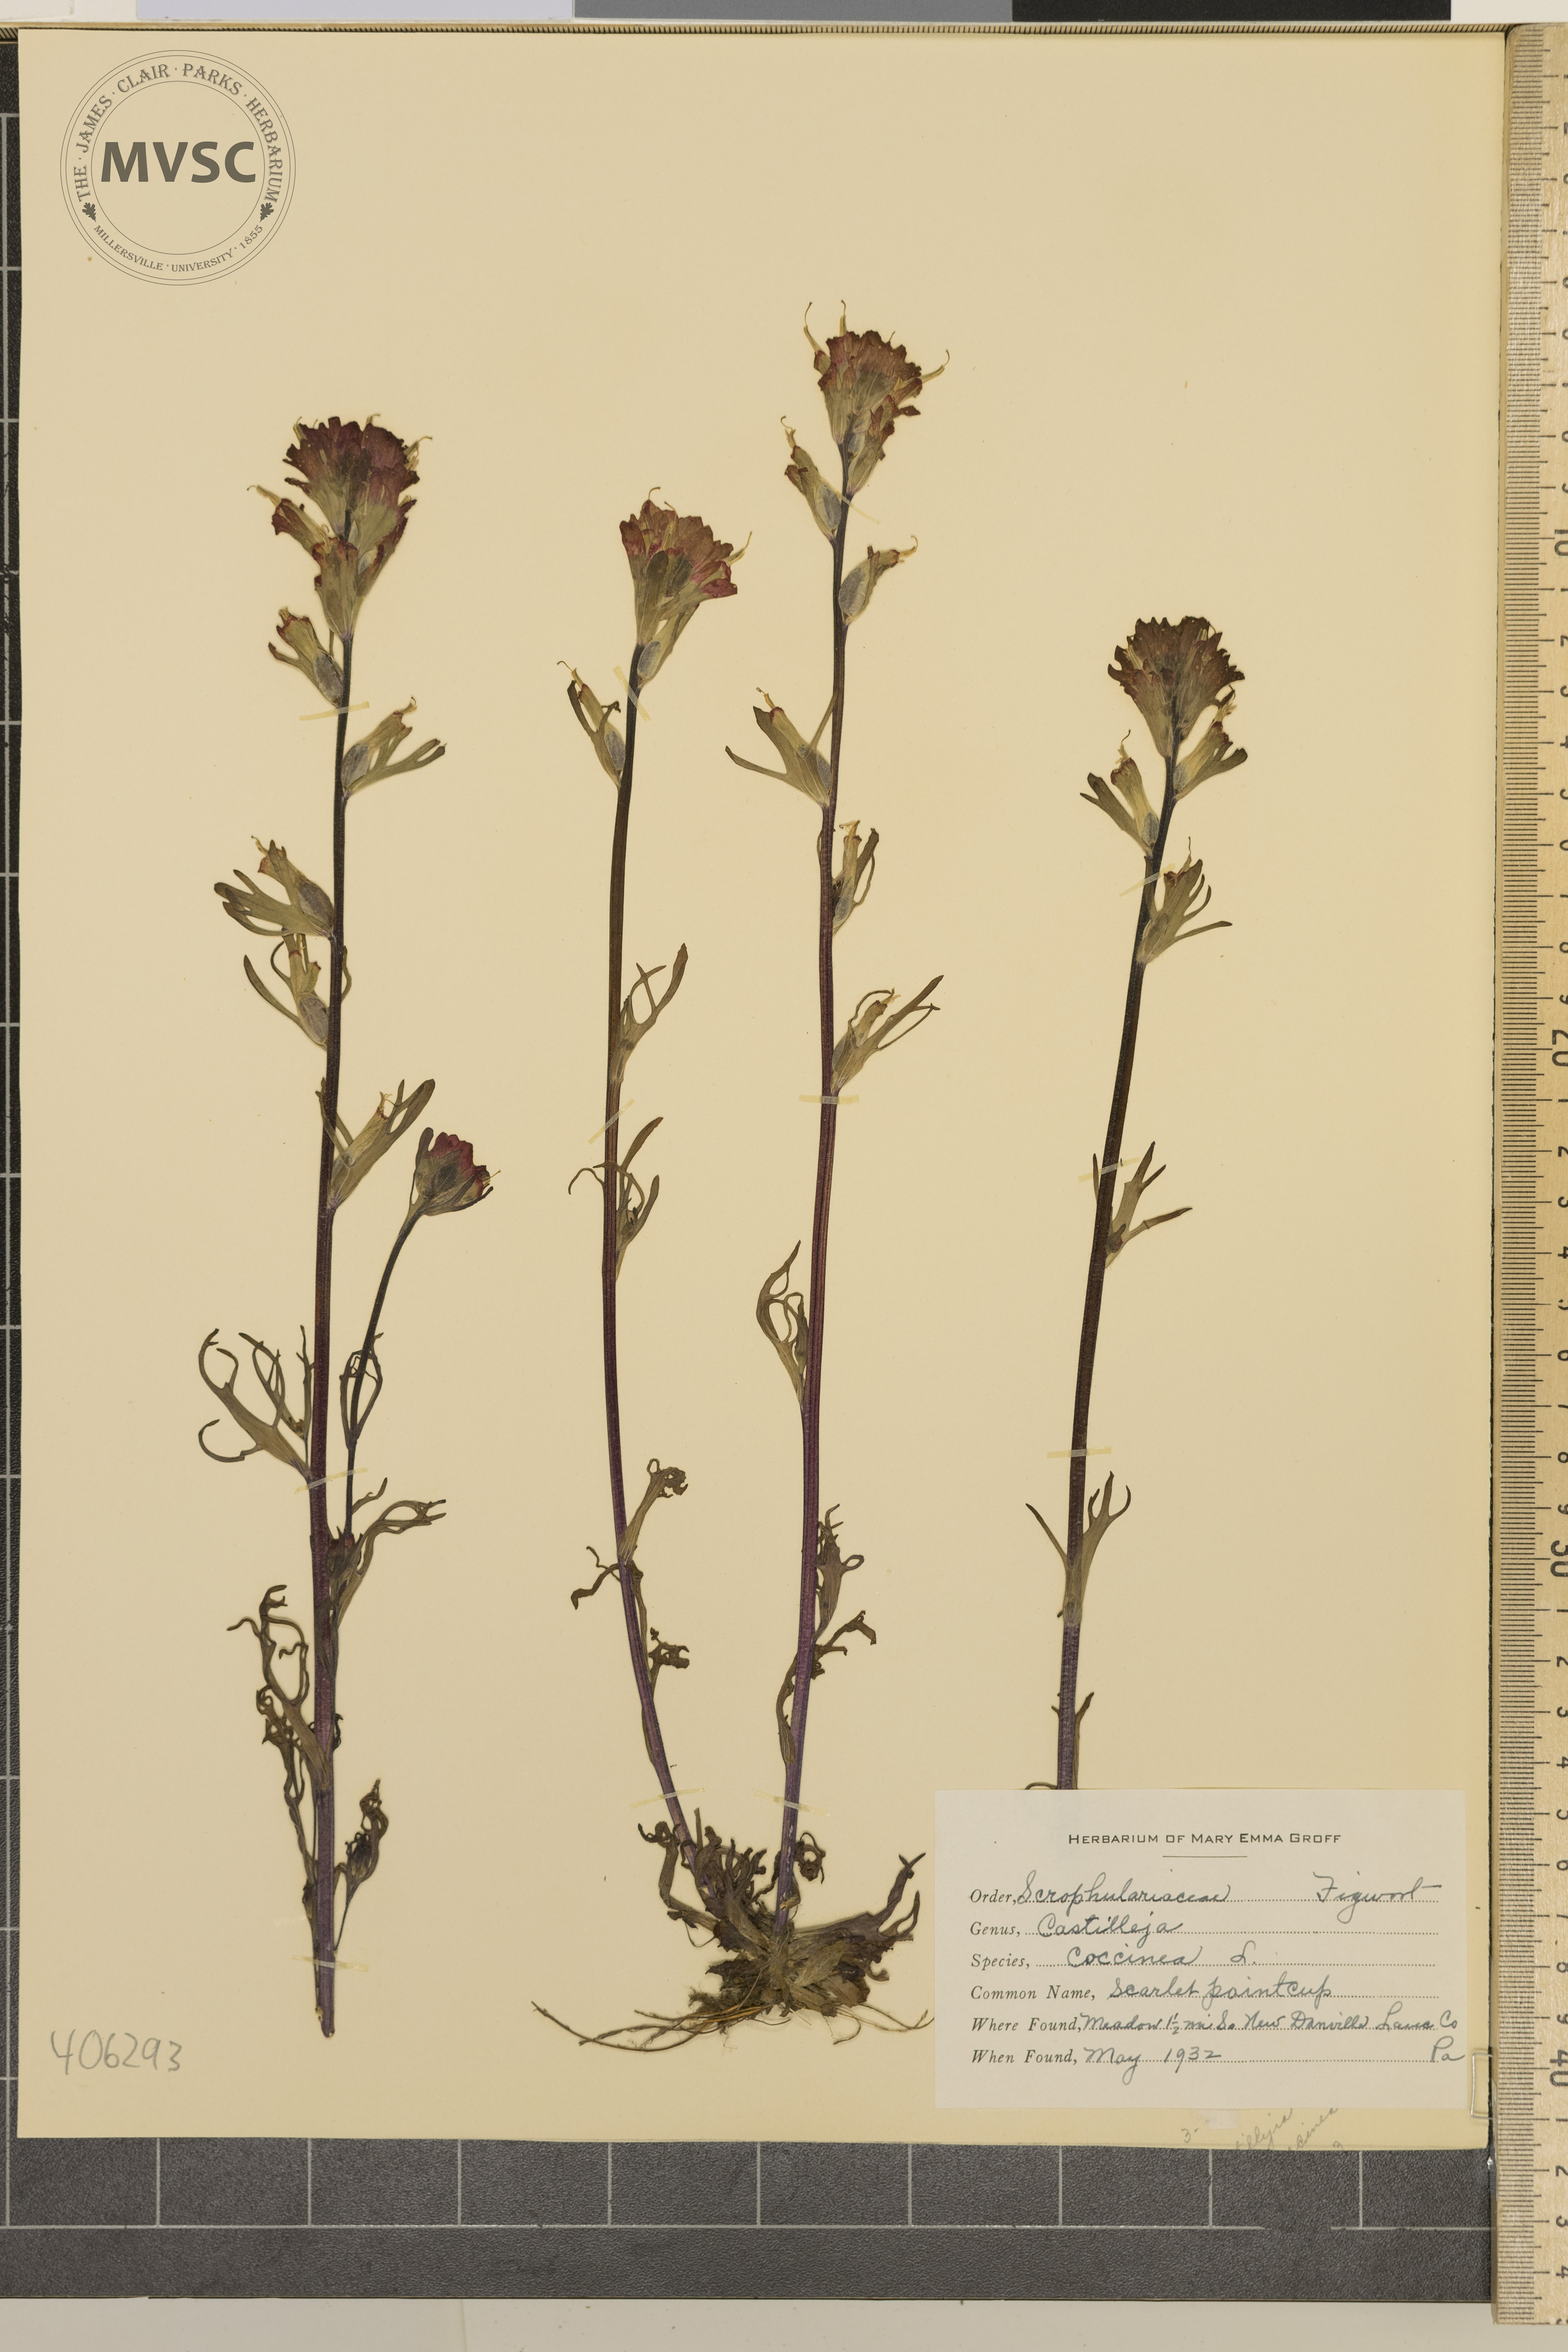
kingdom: Plantae
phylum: Tracheophyta
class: Magnoliopsida
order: Lamiales
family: Orobanchaceae
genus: Castilleja
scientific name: Castilleja coccinea
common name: Scarlet painted-cup
